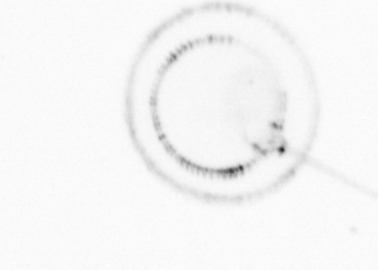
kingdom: Chromista
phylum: Ochrophyta
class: Bacillariophyceae
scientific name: Bacillariophyceae
